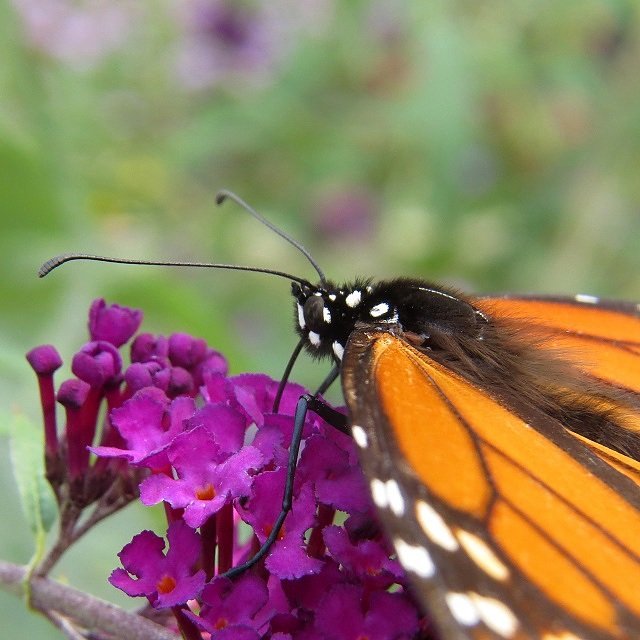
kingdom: Animalia
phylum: Arthropoda
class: Insecta
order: Lepidoptera
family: Nymphalidae
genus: Danaus
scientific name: Danaus plexippus
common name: Monarch
